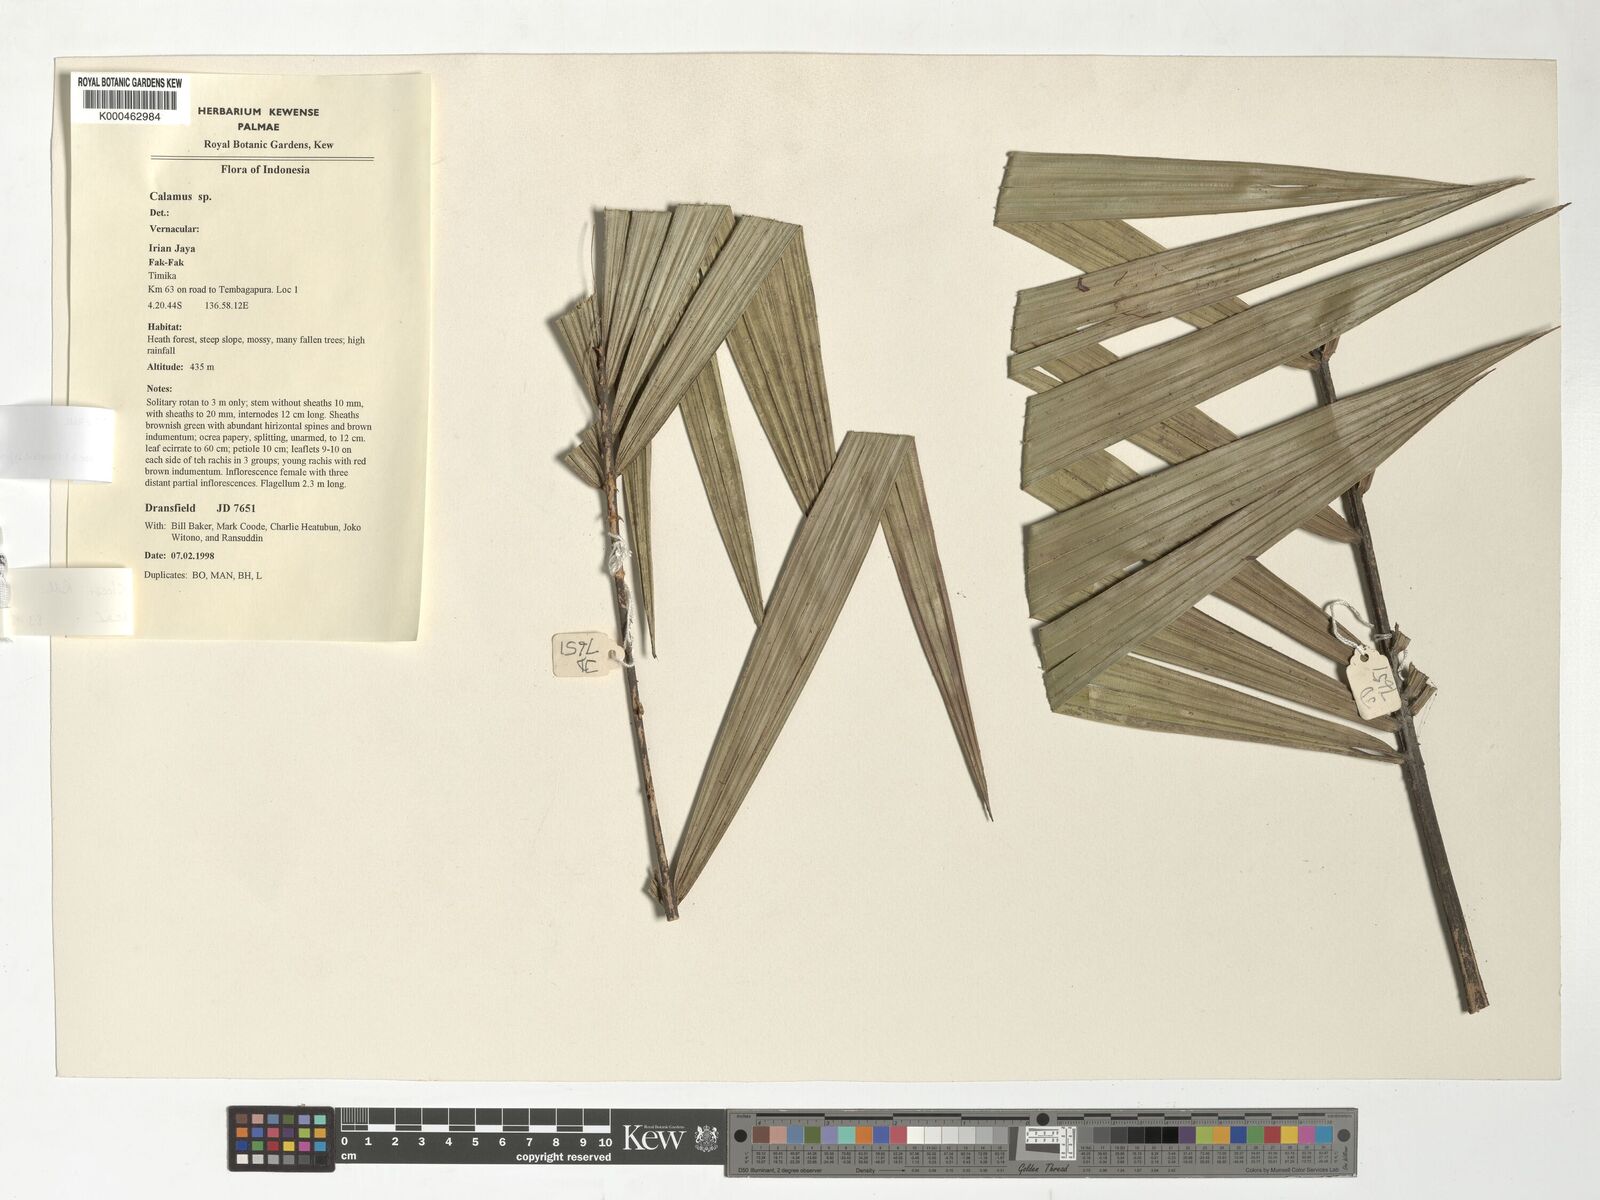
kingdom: Plantae
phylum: Tracheophyta
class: Liliopsida
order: Arecales
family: Arecaceae
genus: Calamus
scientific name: Calamus klossii
